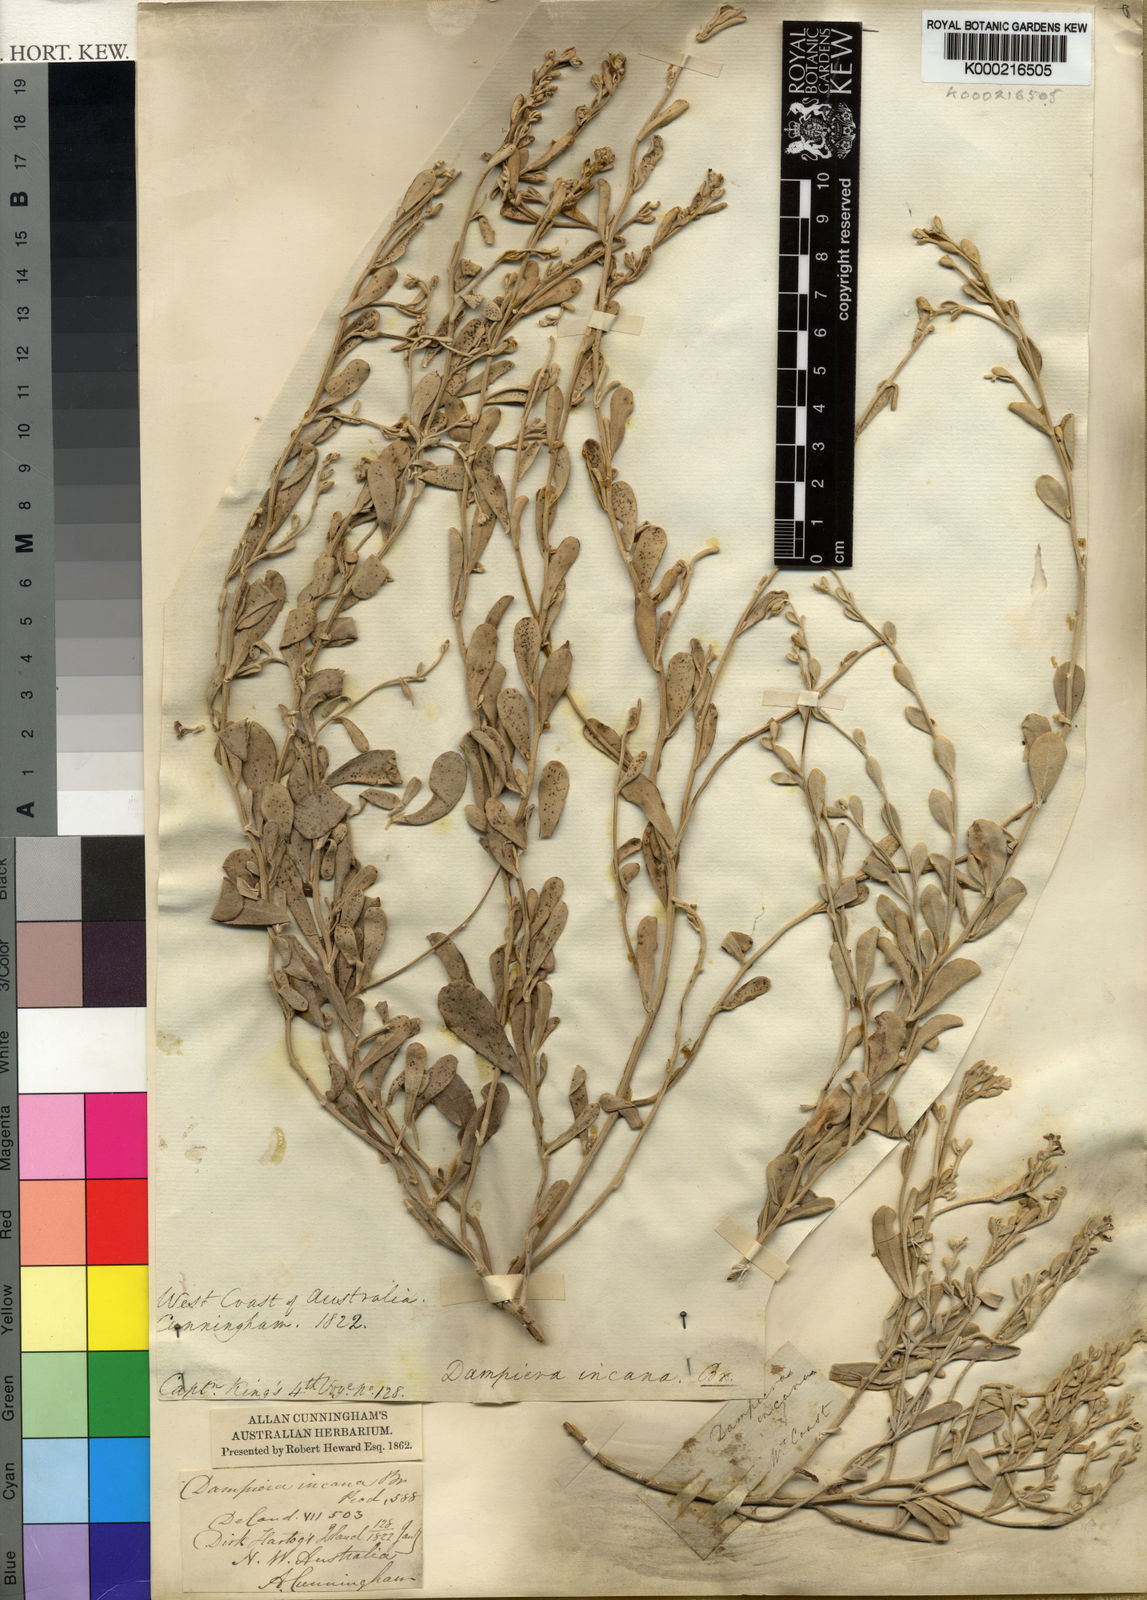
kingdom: Plantae
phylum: Tracheophyta
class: Magnoliopsida
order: Asterales
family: Goodeniaceae
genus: Dampiera
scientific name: Dampiera incana
